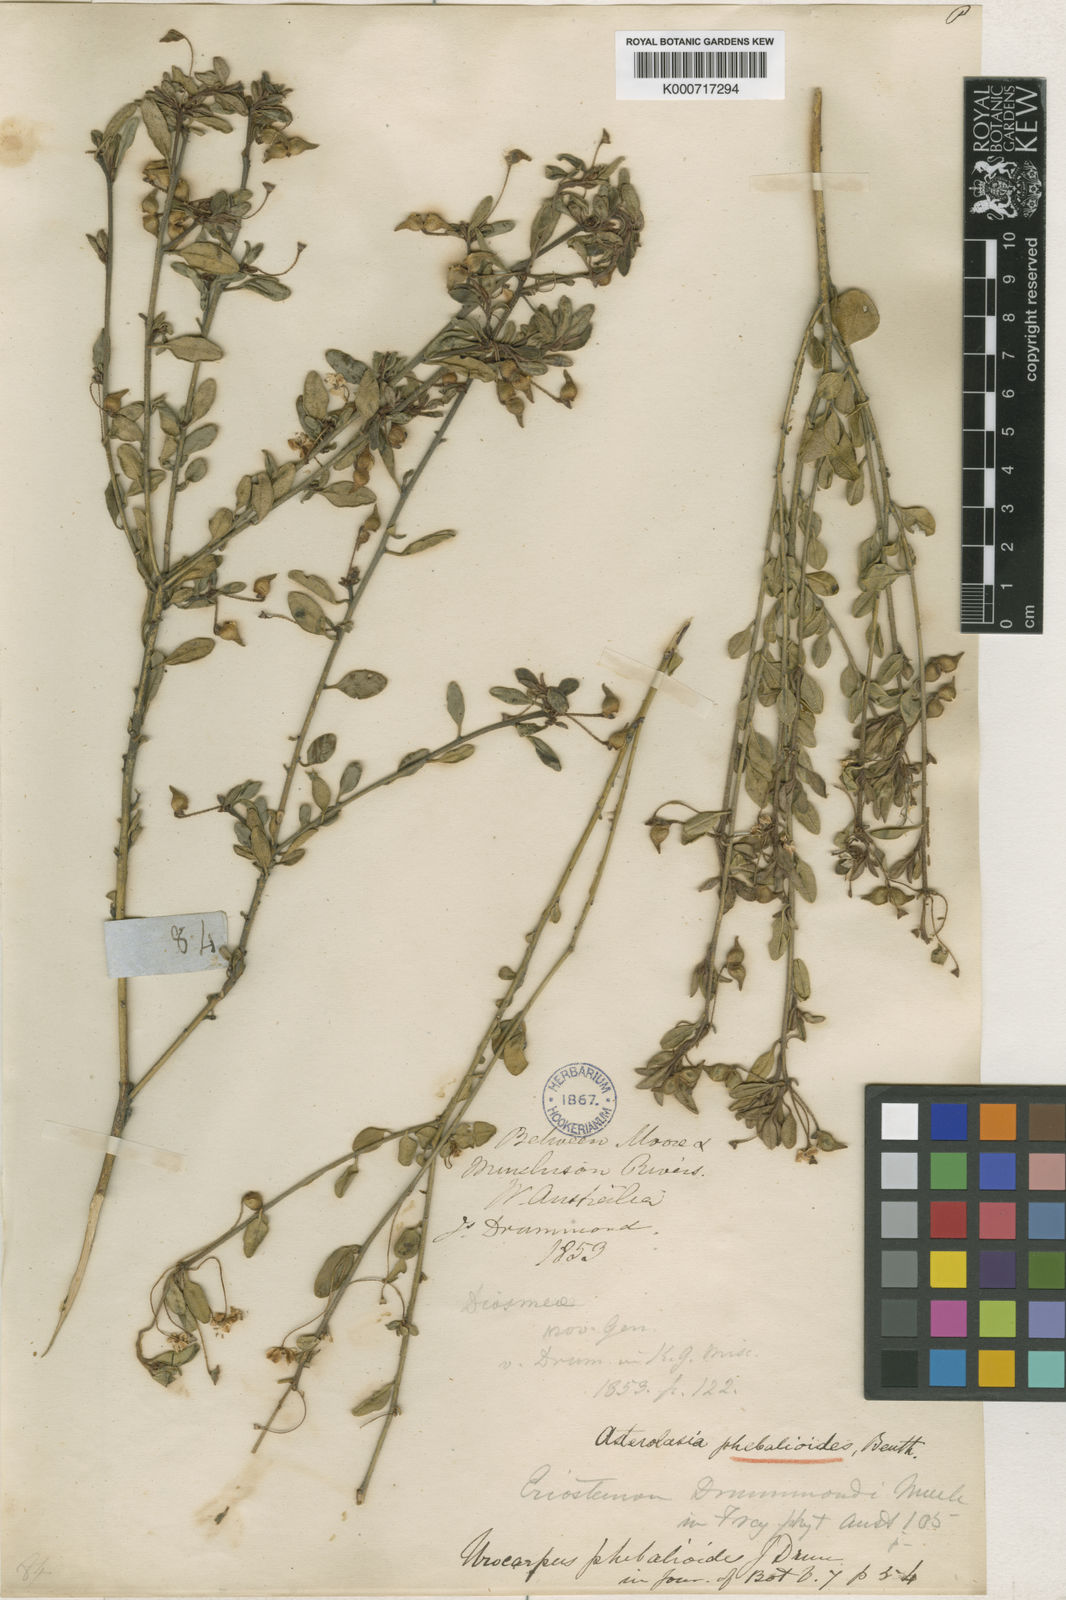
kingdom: Plantae
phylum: Tracheophyta
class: Magnoliopsida
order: Sapindales
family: Rutaceae
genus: Asterolasia
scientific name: Asterolasia
